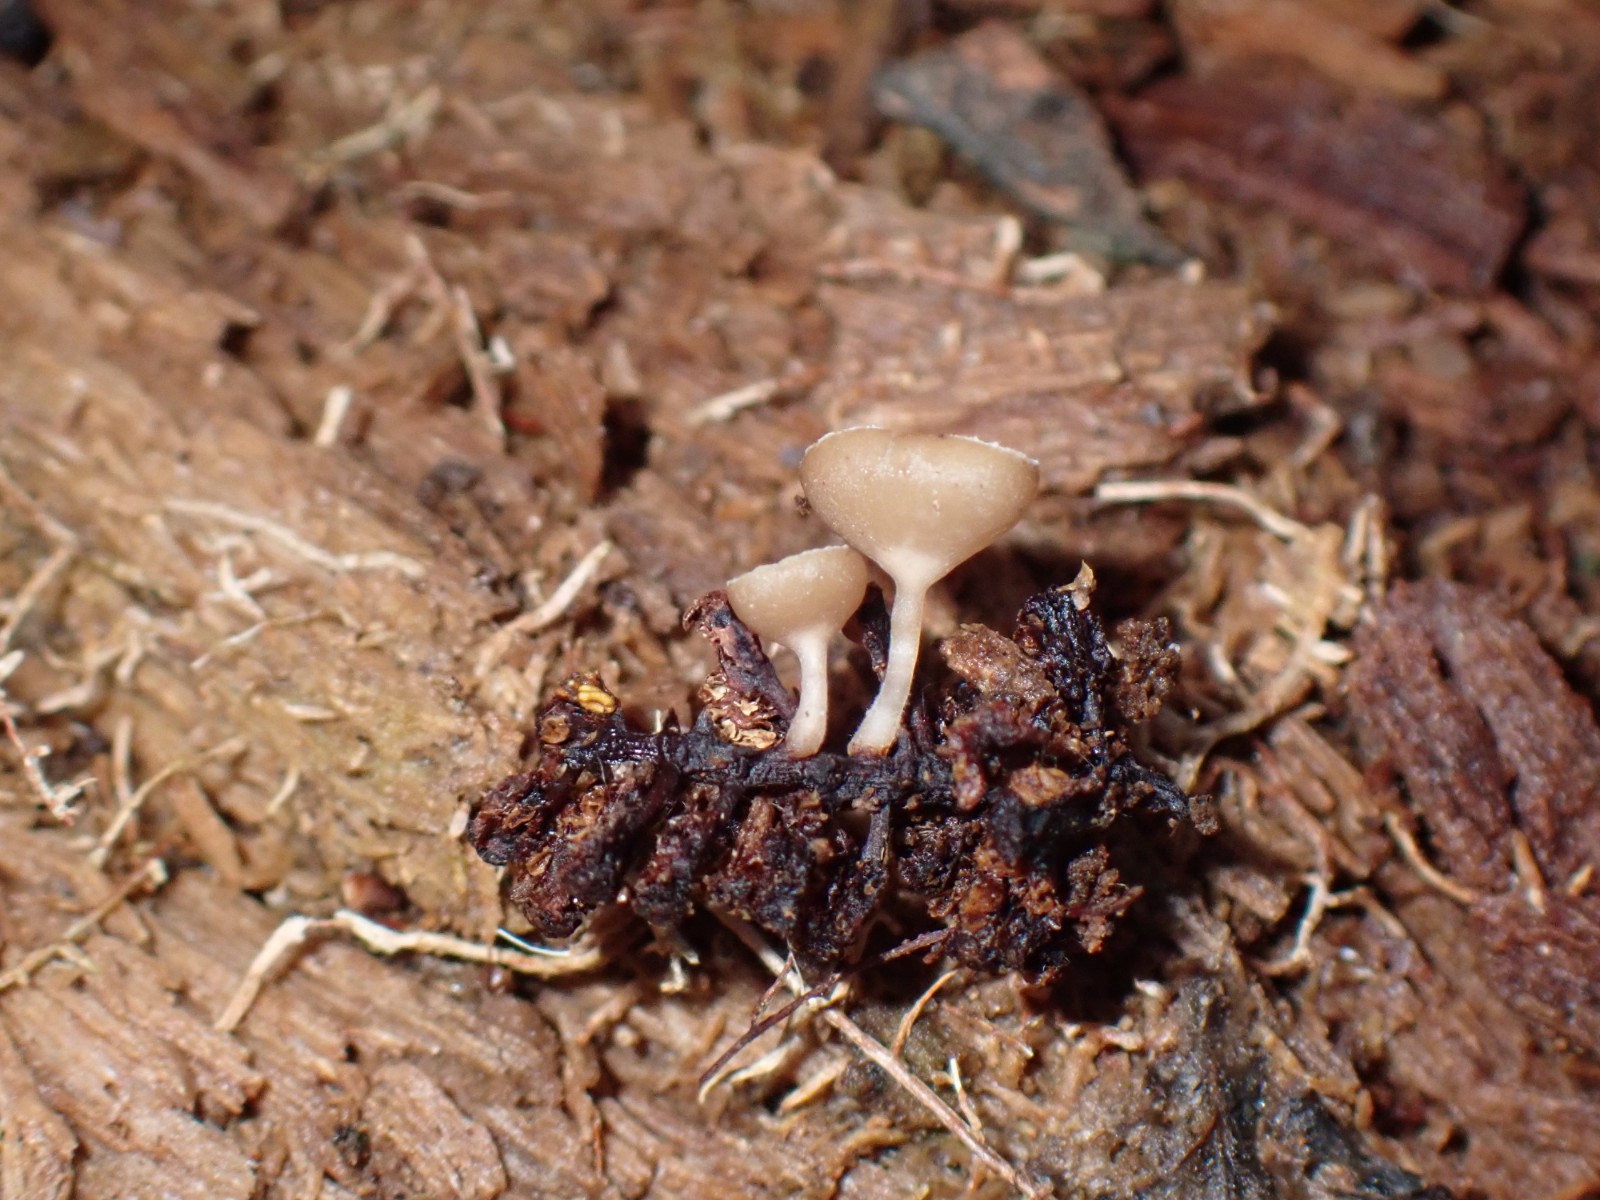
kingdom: Fungi
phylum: Ascomycota
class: Leotiomycetes
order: Helotiales
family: Sclerotiniaceae
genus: Ciboria
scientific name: Ciboria amentacea
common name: ellerakle-knoldskive
